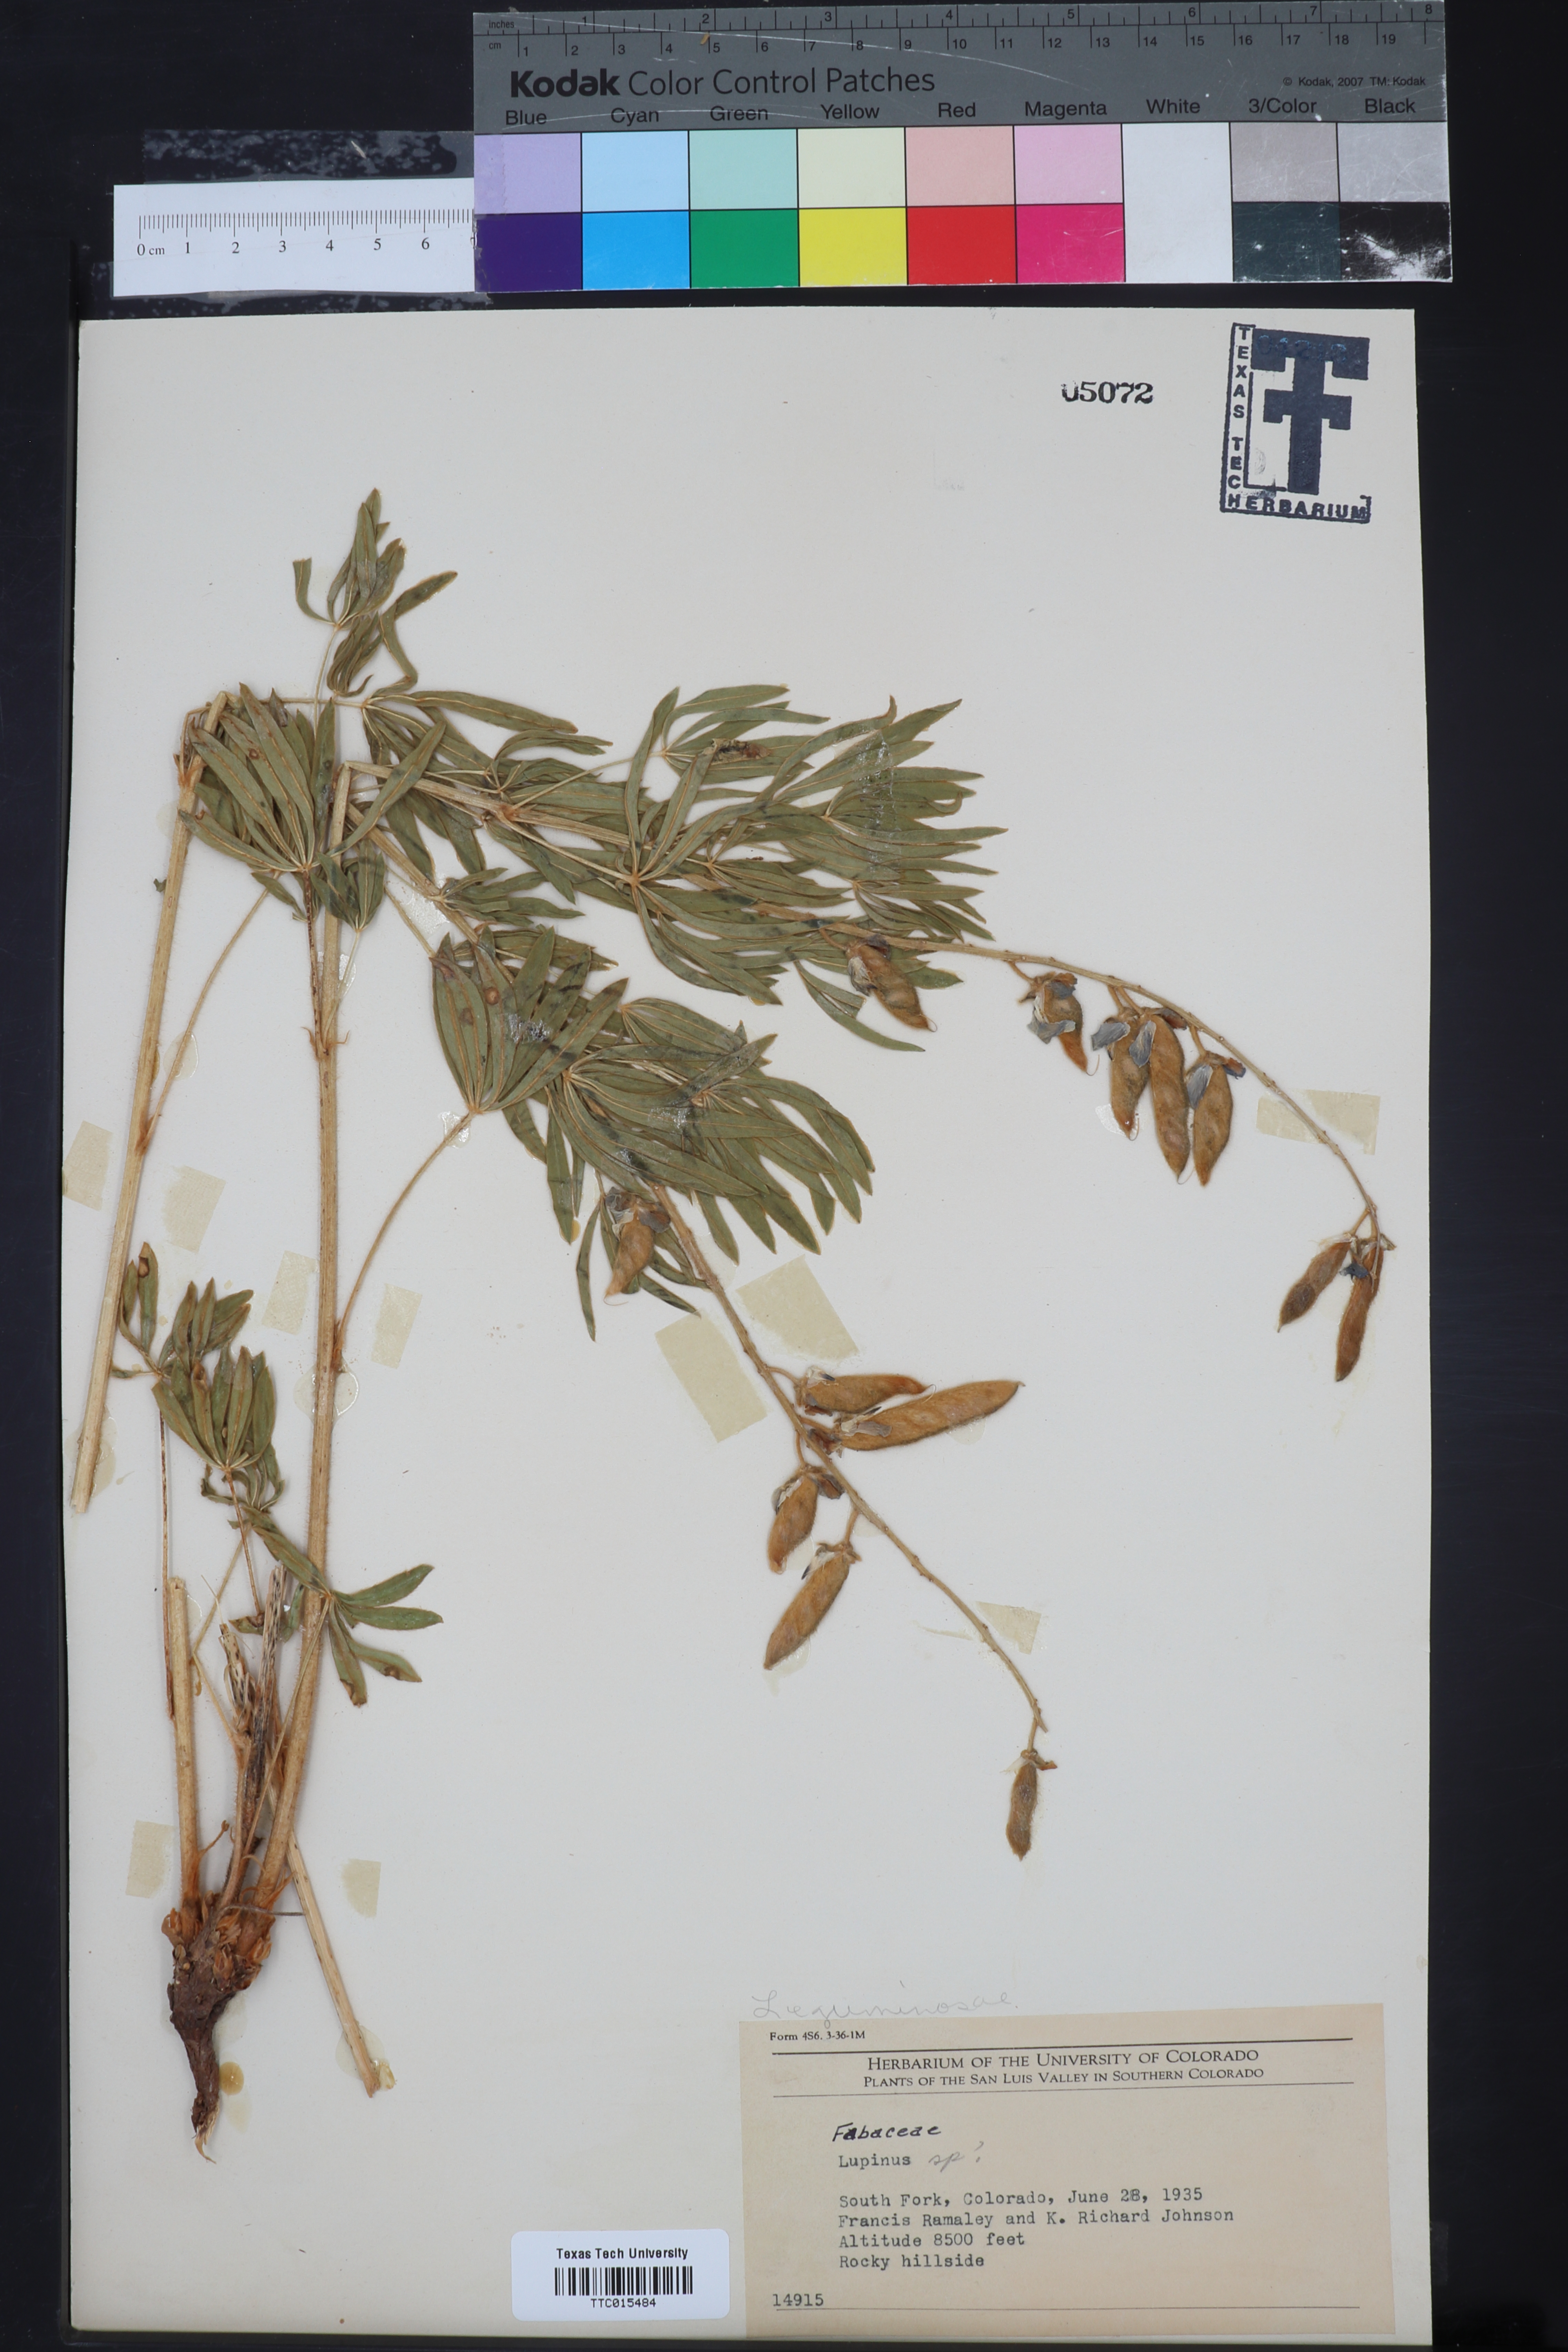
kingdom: Plantae
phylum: Tracheophyta
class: Magnoliopsida
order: Fabales
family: Fabaceae
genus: Lupinus
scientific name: Lupinus
